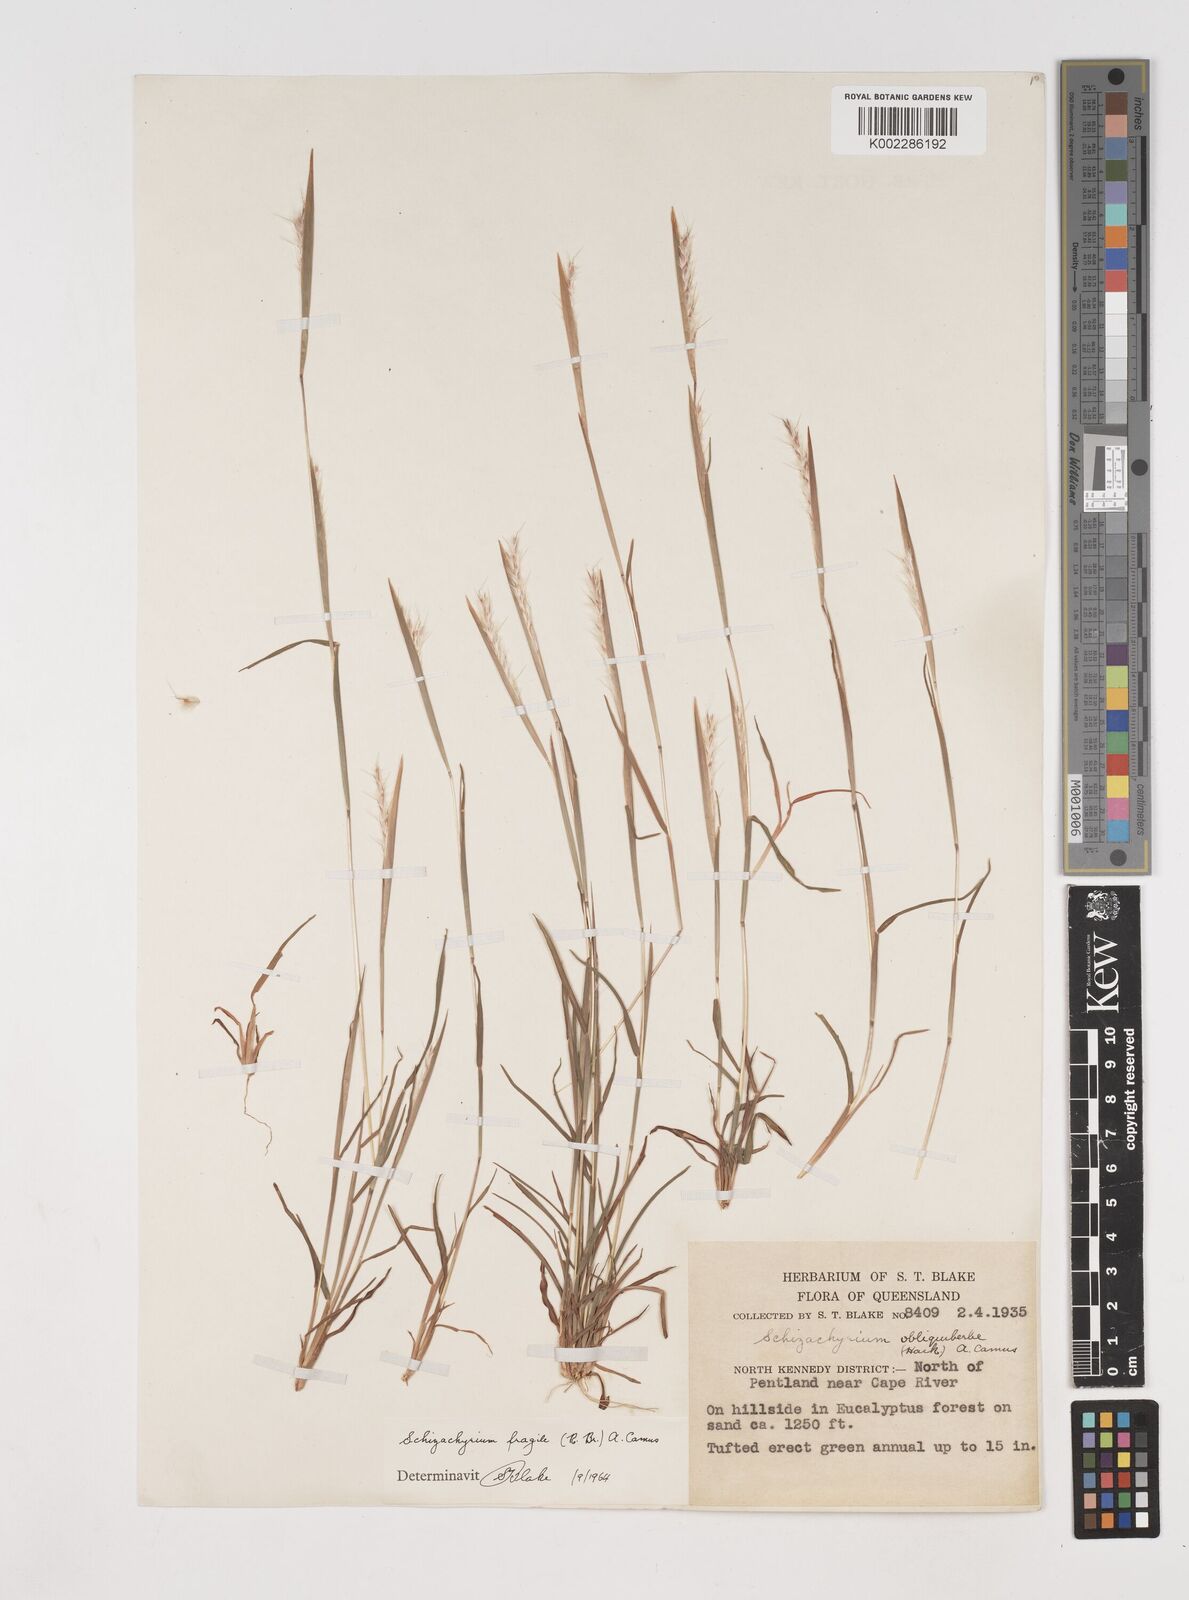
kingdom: Plantae
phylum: Tracheophyta
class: Liliopsida
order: Poales
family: Poaceae
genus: Schizachyrium
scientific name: Schizachyrium fragile
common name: Red spathe grass
